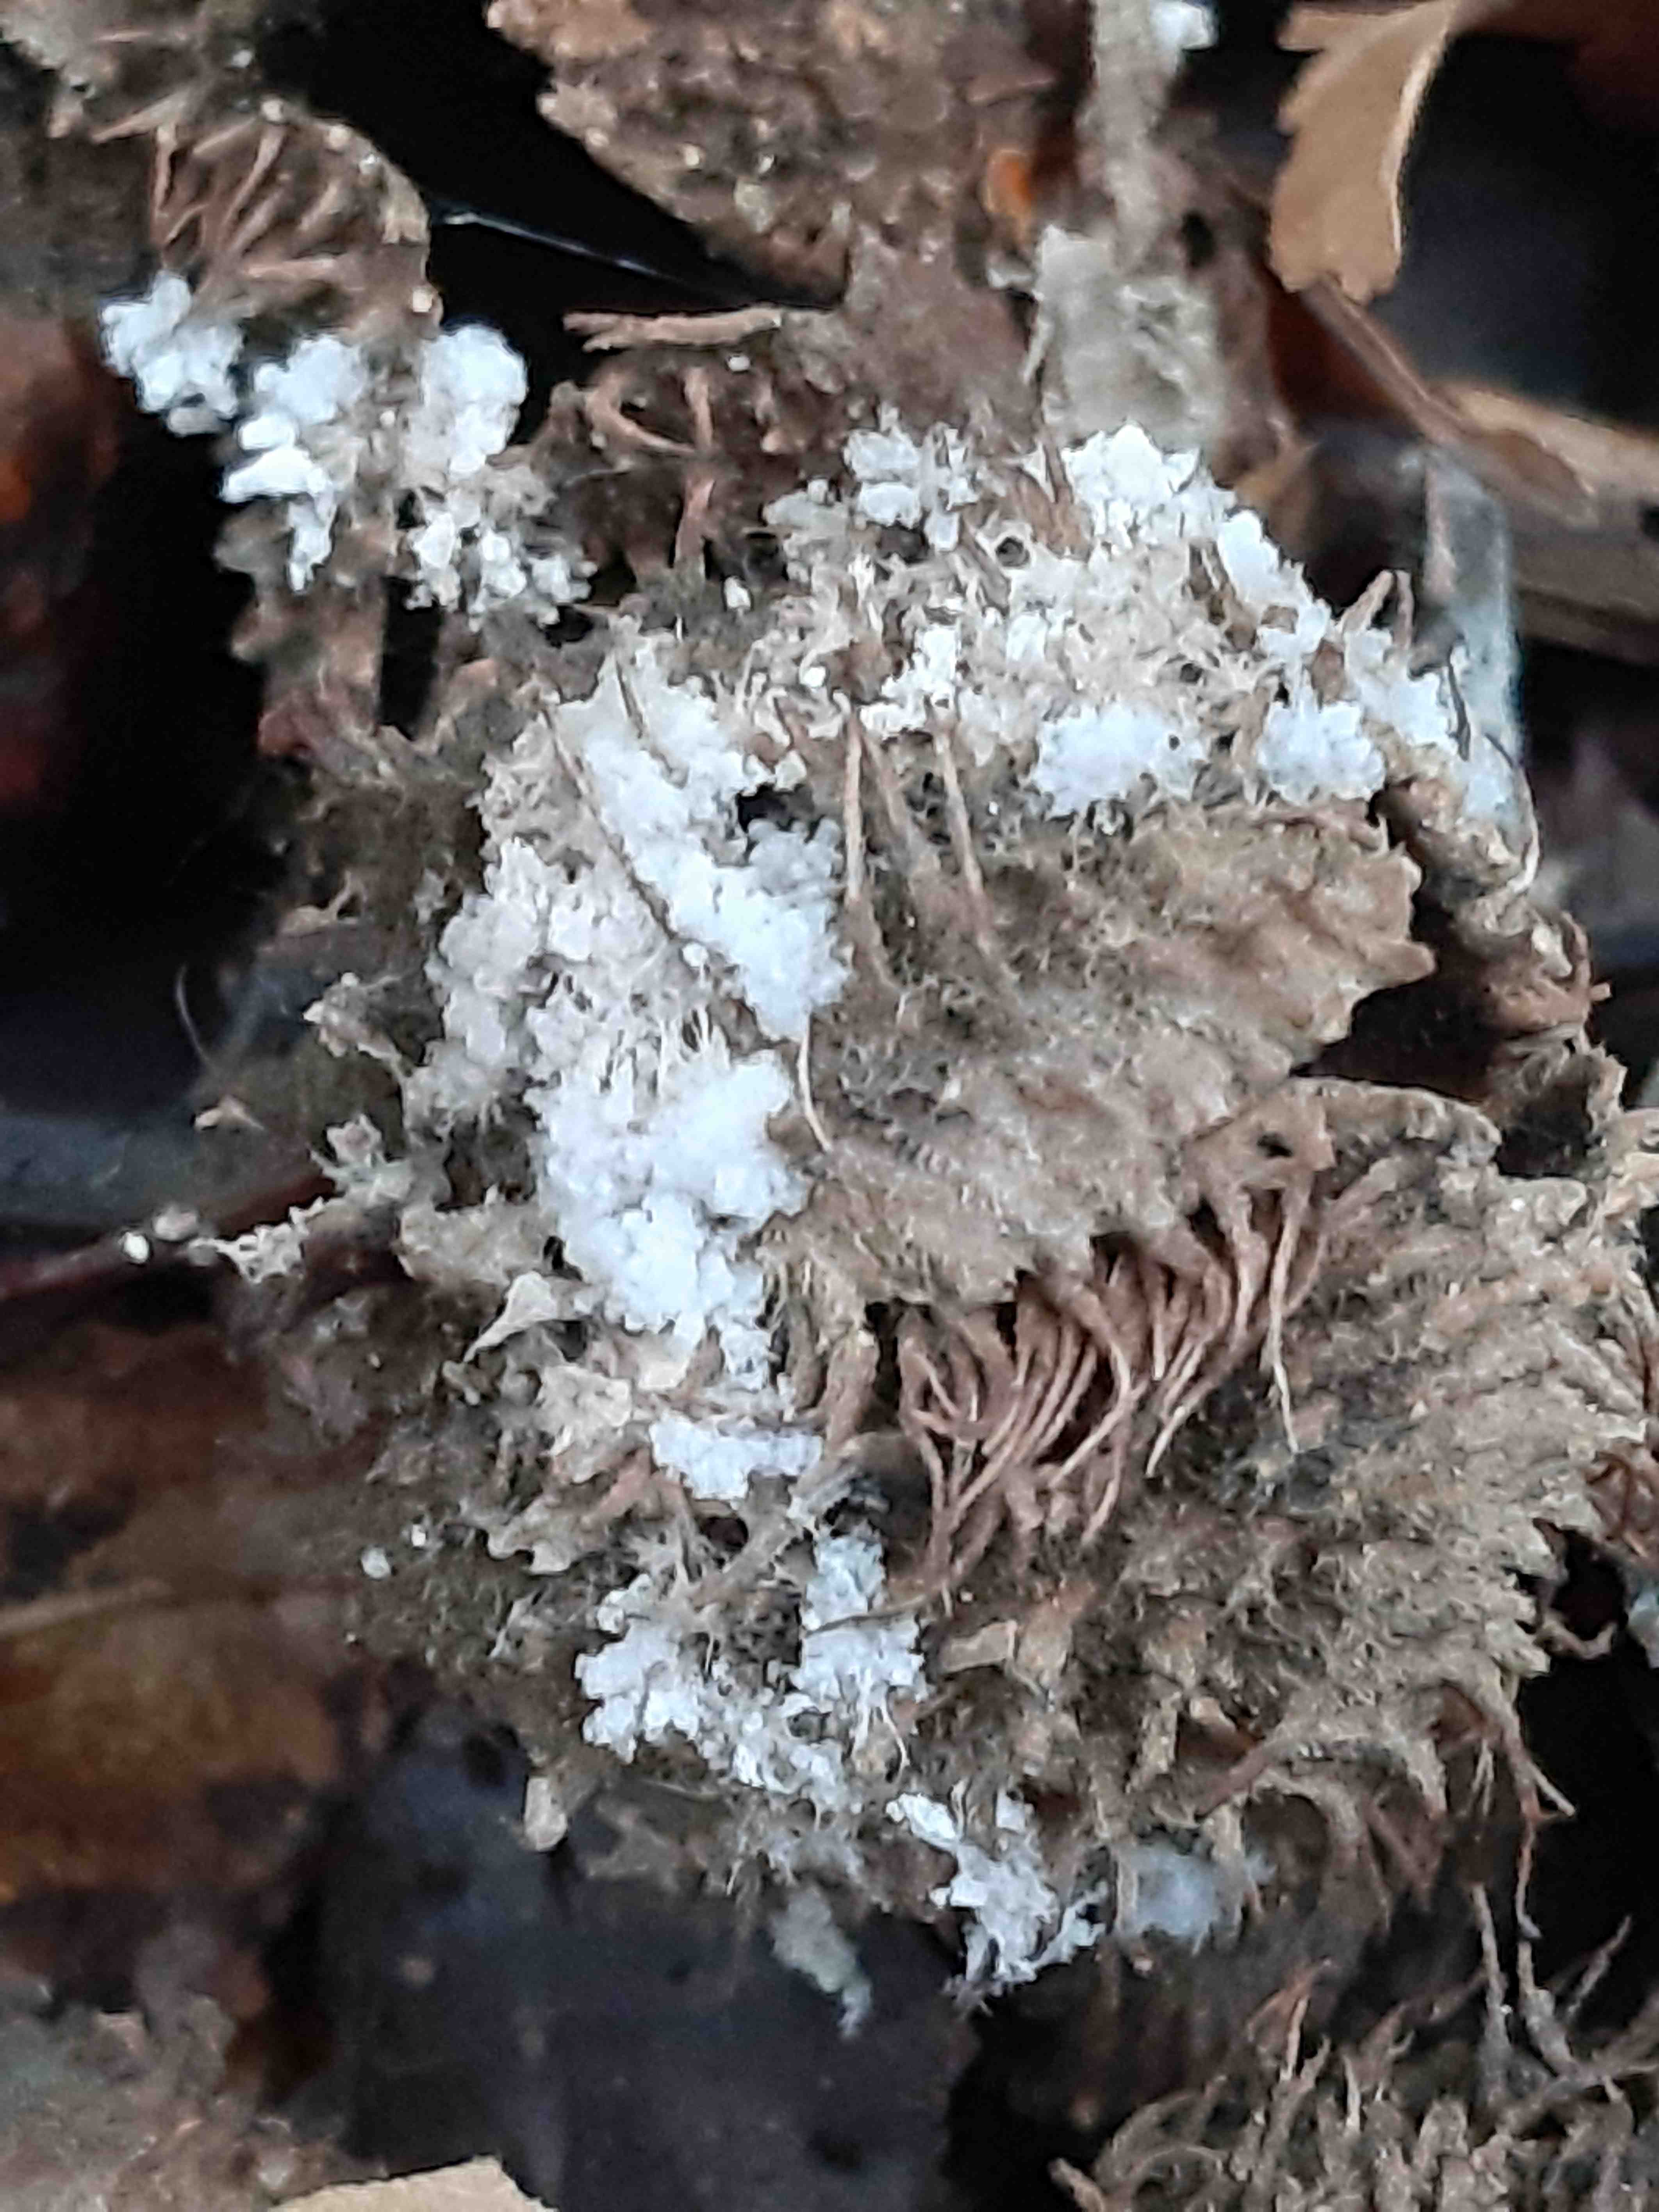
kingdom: Fungi
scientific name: Fungi
